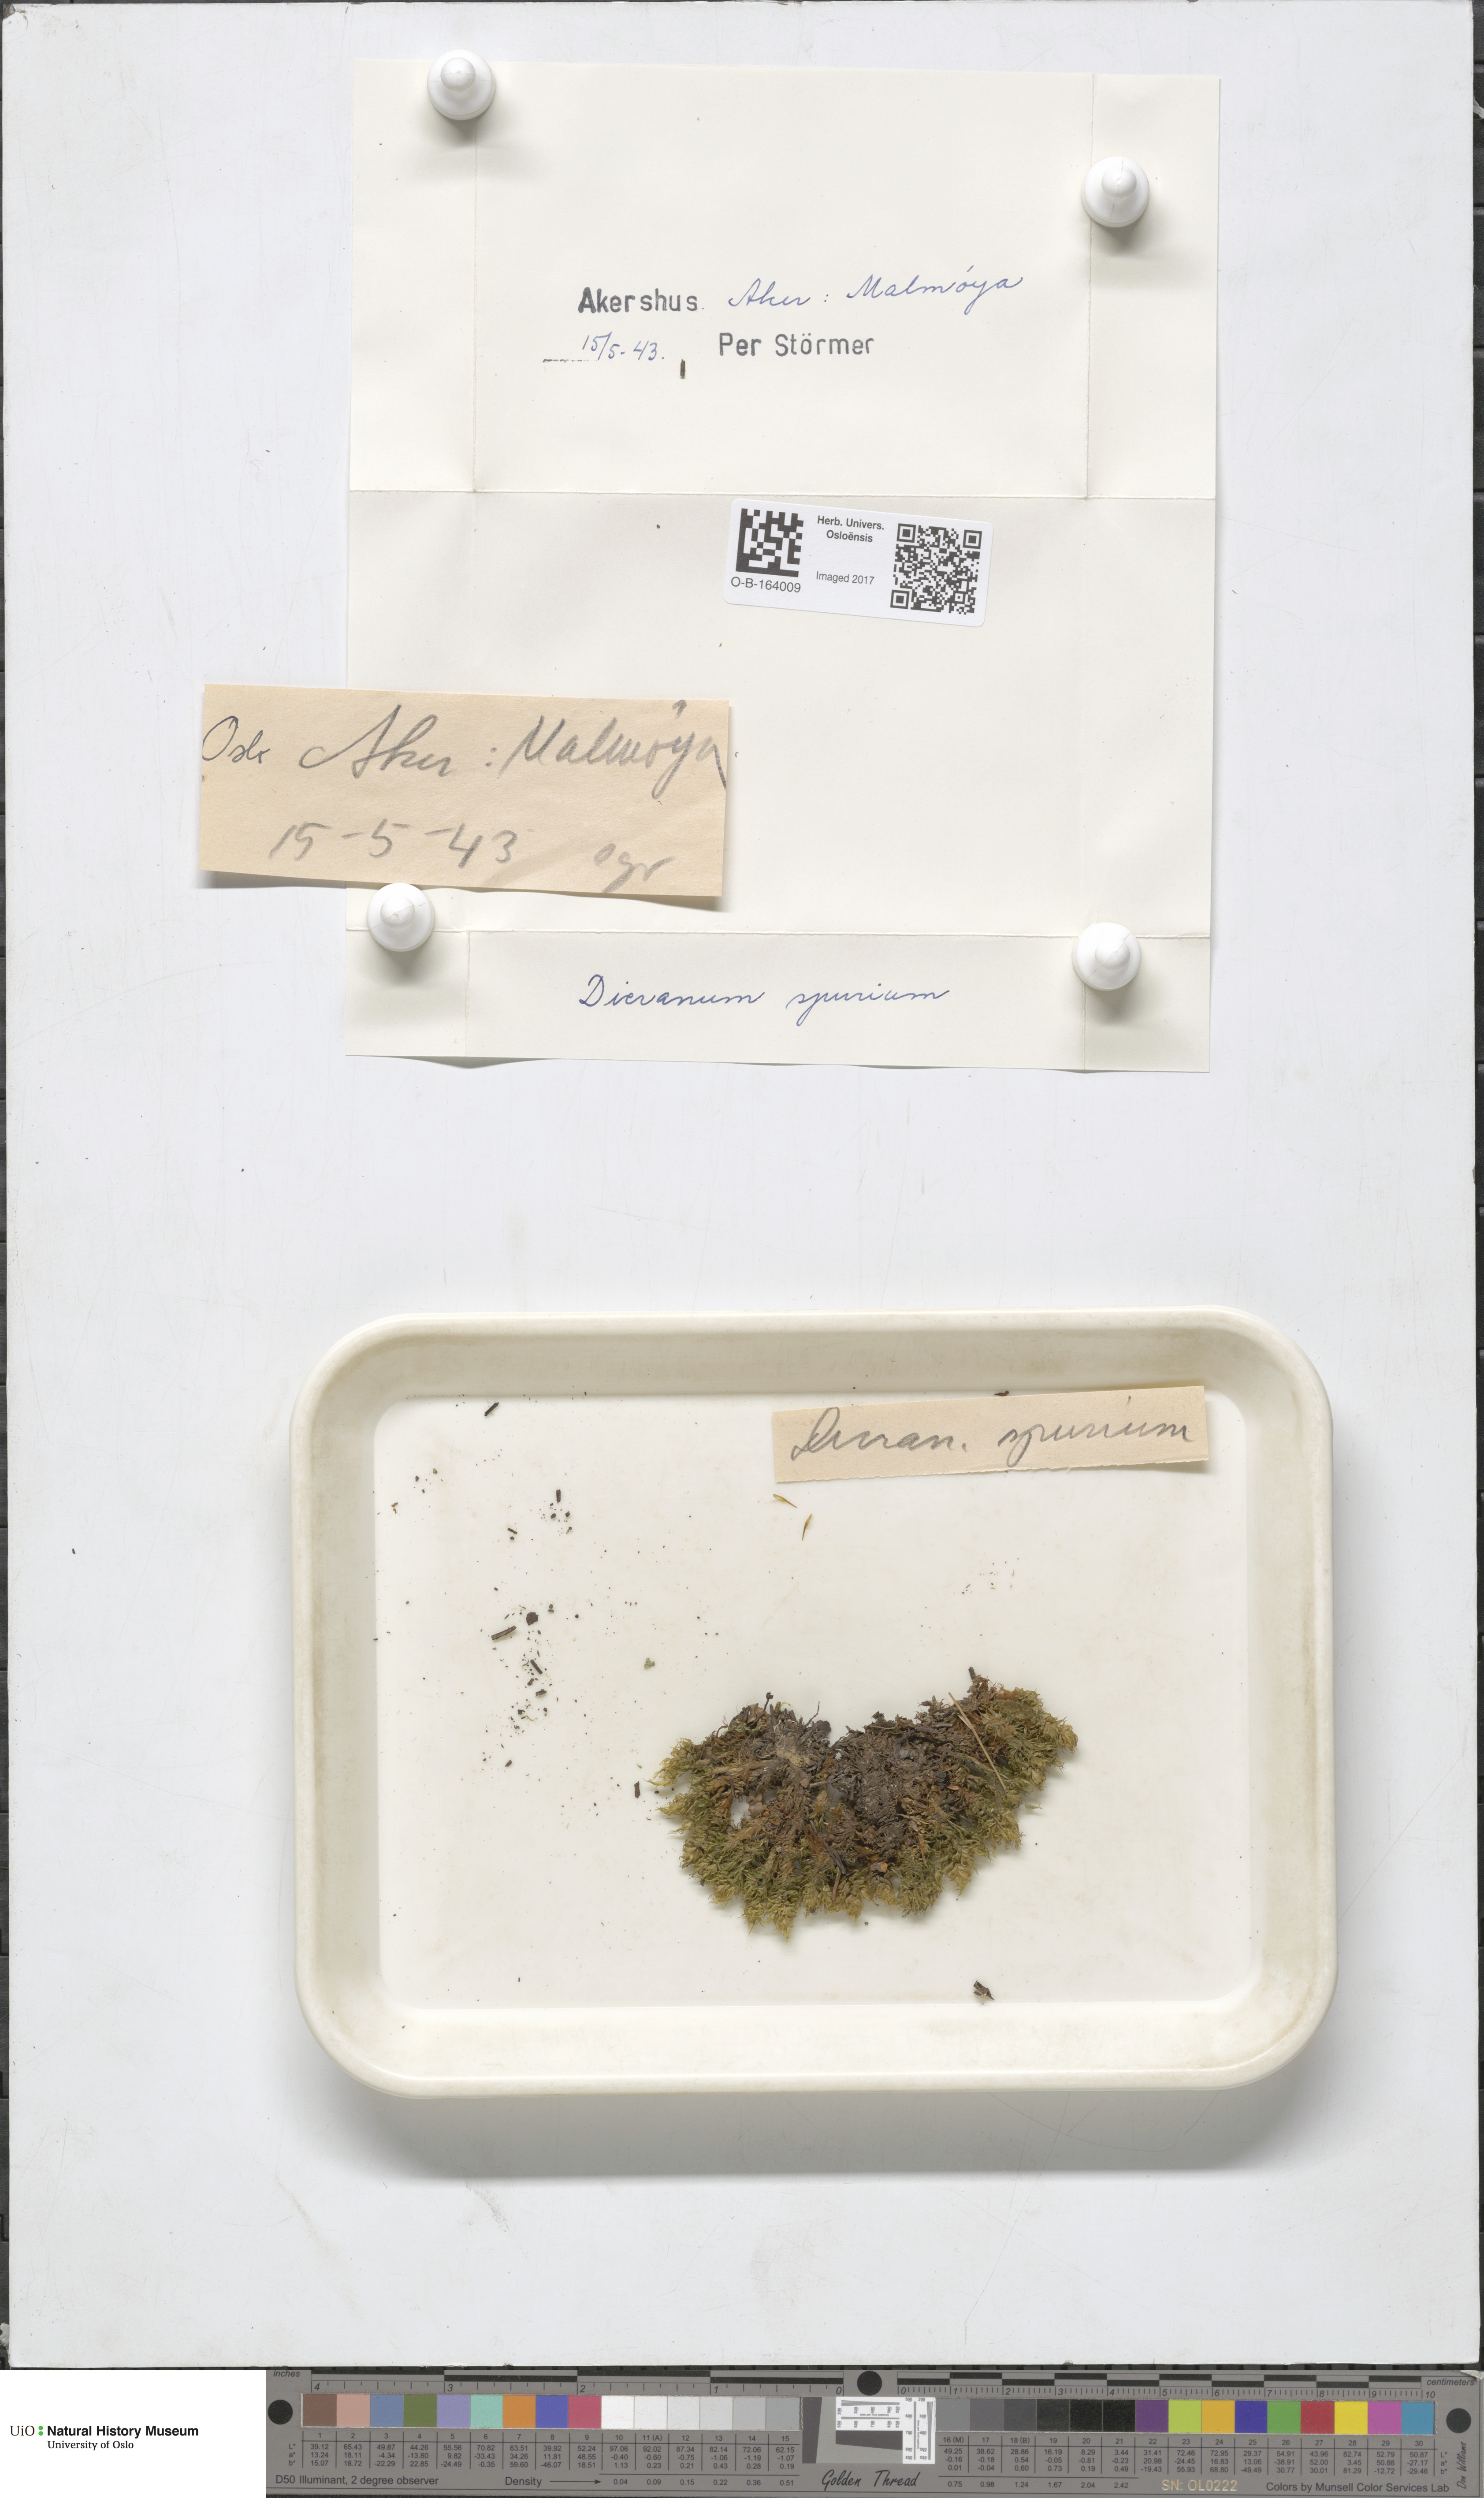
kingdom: Plantae
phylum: Bryophyta
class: Bryopsida
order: Dicranales
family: Dicranaceae
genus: Dicranum
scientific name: Dicranum spurium
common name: Spurred broom moss
